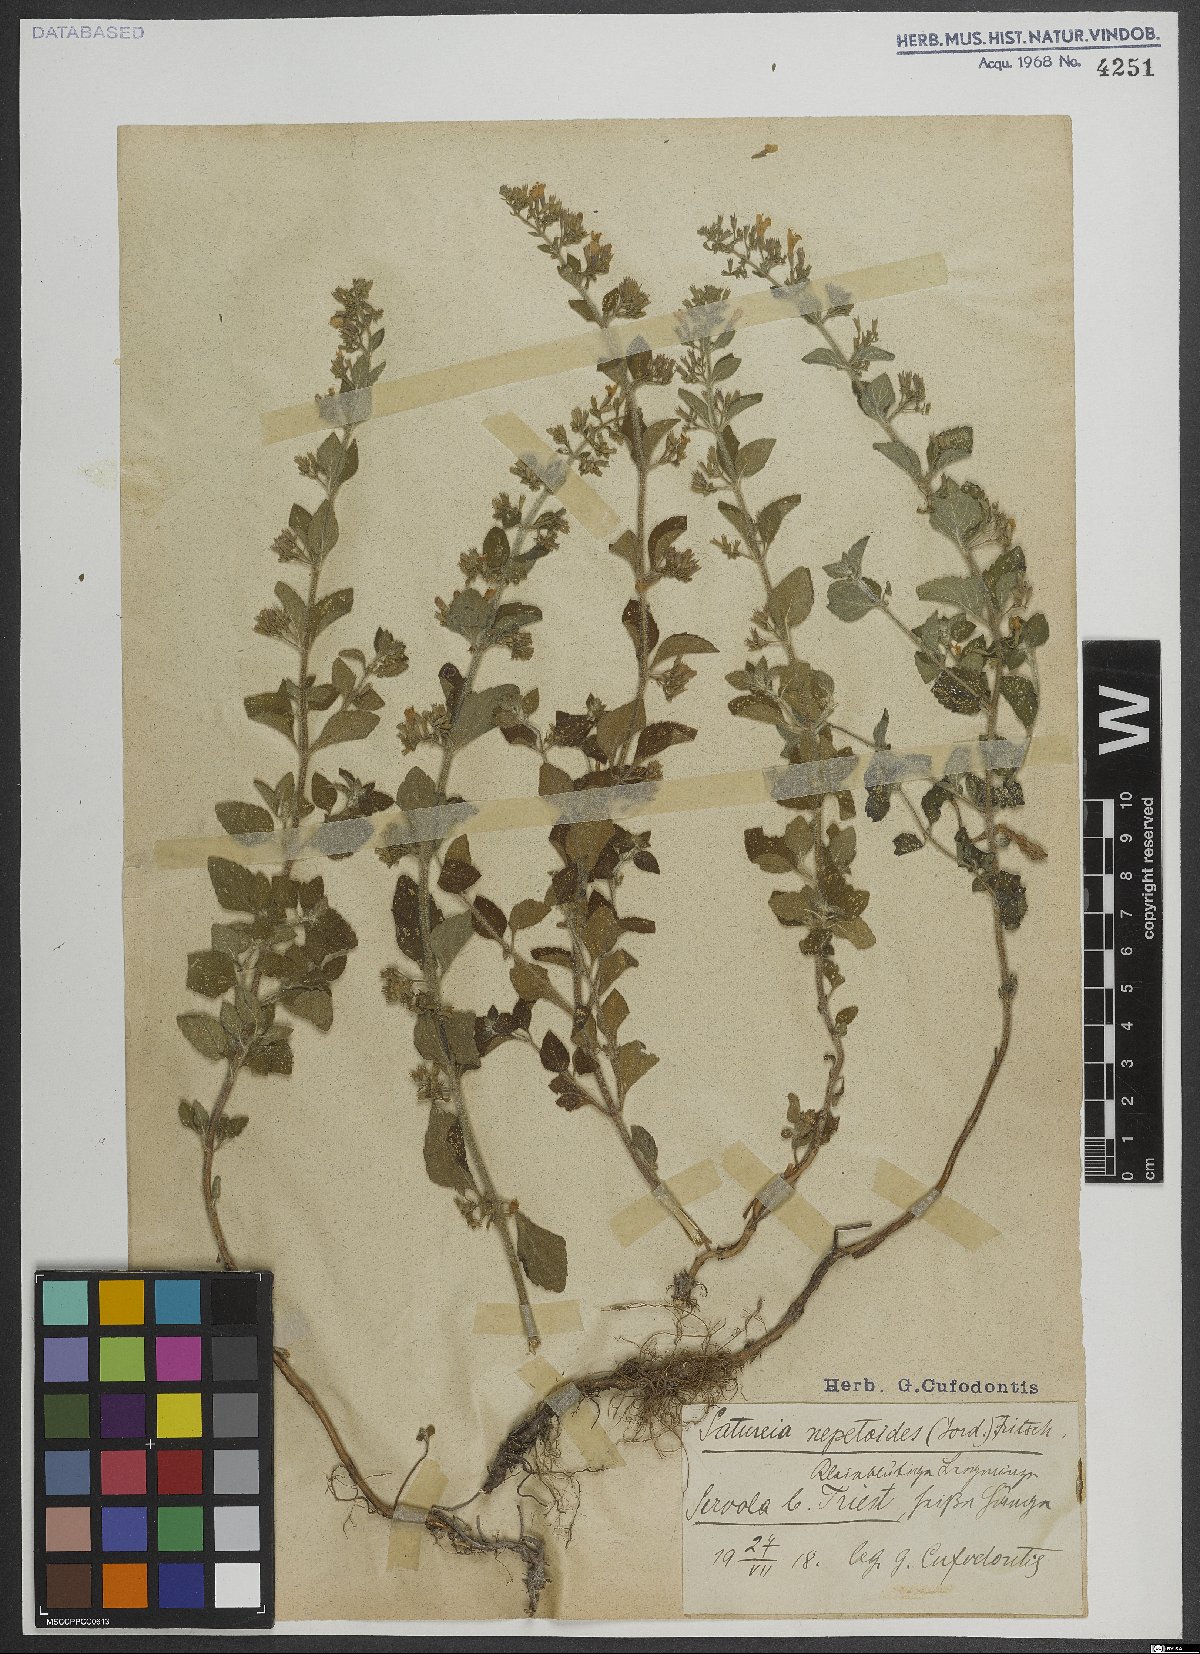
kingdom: Plantae
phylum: Tracheophyta
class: Magnoliopsida
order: Lamiales
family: Lamiaceae
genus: Clinopodium
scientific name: Clinopodium nepeta
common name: Lesser calamint
